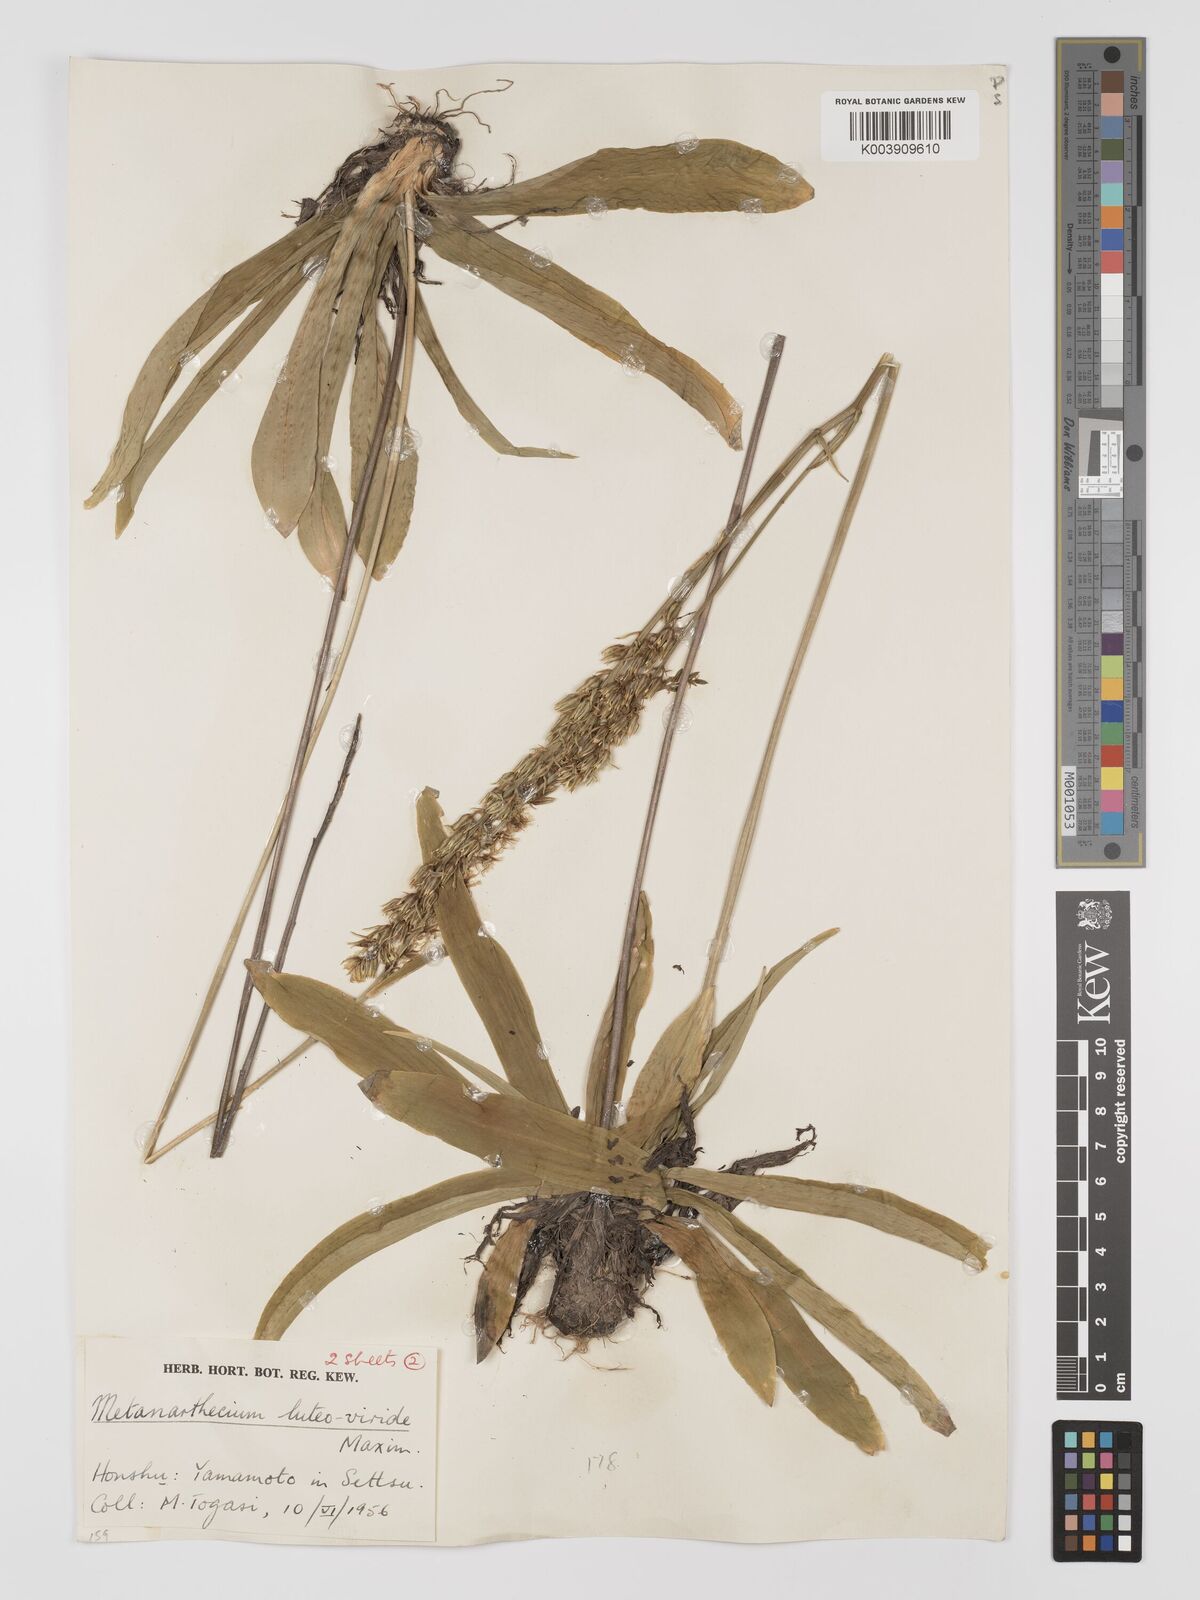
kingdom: Plantae
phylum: Tracheophyta
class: Liliopsida
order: Dioscoreales
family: Nartheciaceae
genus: Metanarthecium
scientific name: Metanarthecium luteoviride
